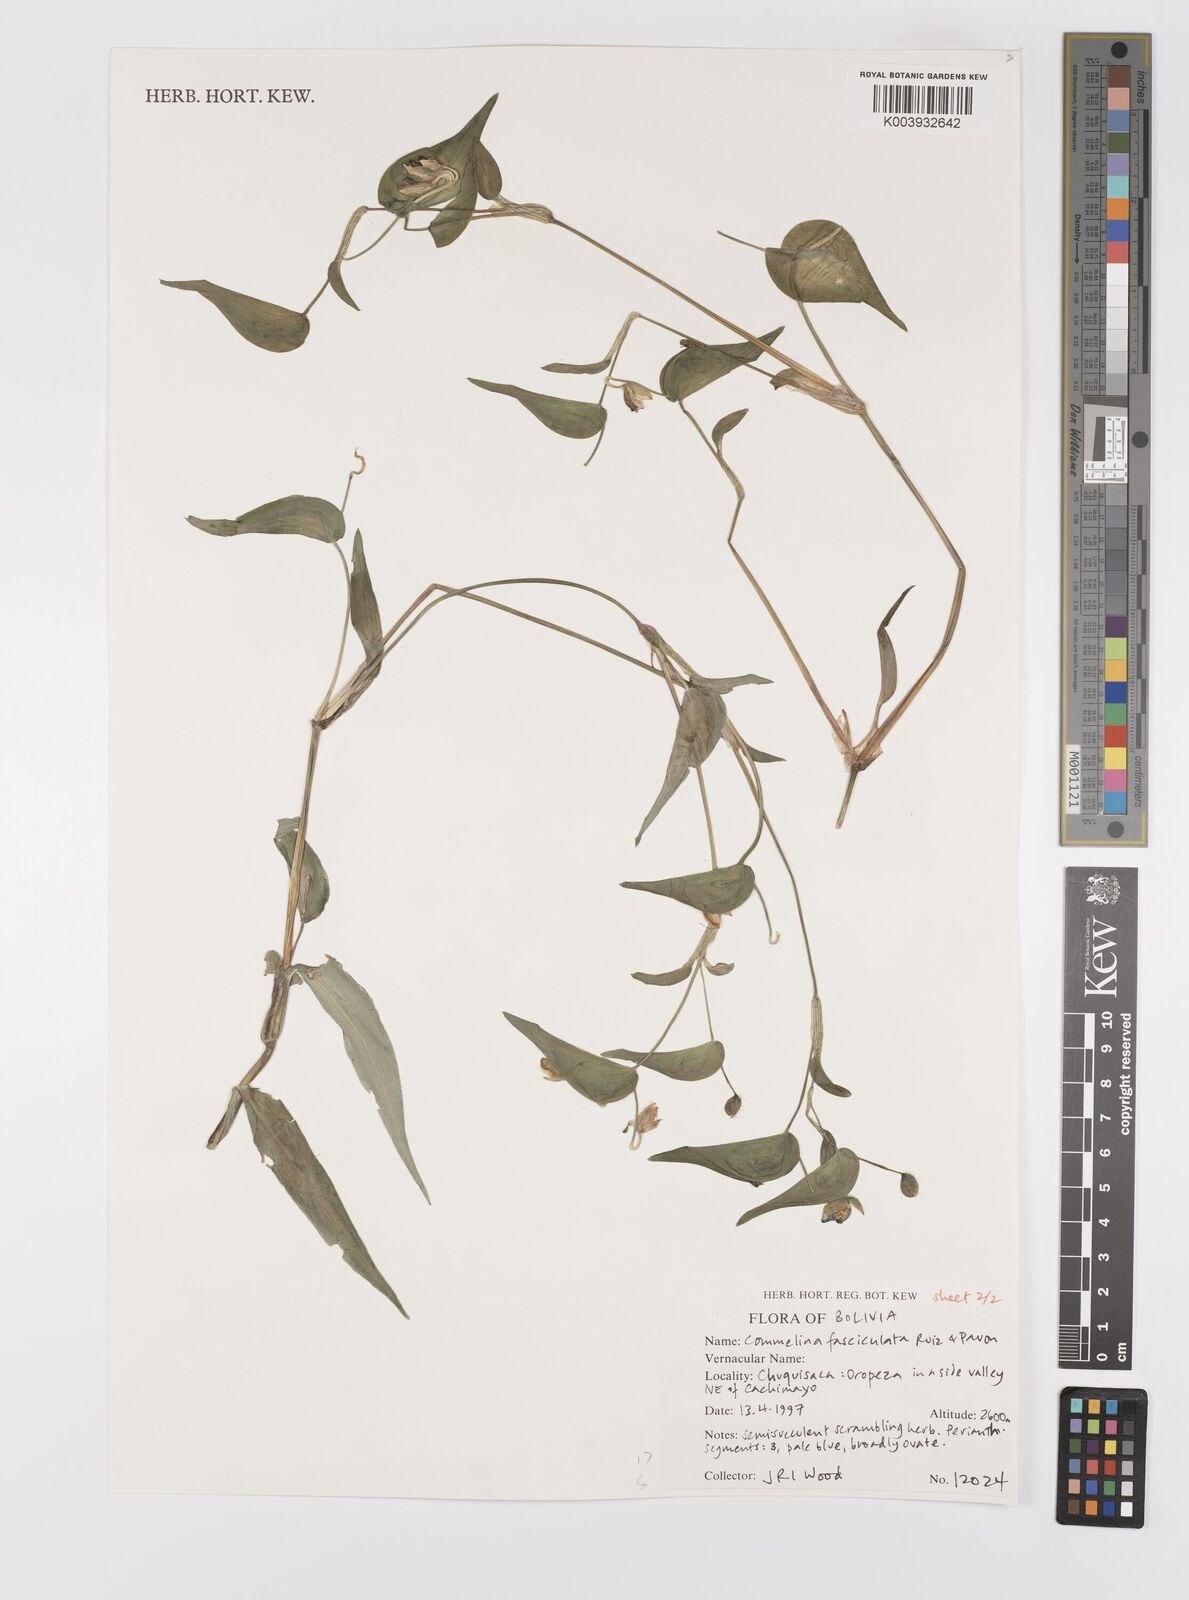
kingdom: Plantae
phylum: Tracheophyta
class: Liliopsida
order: Commelinales
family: Commelinaceae
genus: Commelina
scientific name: Commelina tuberosa
